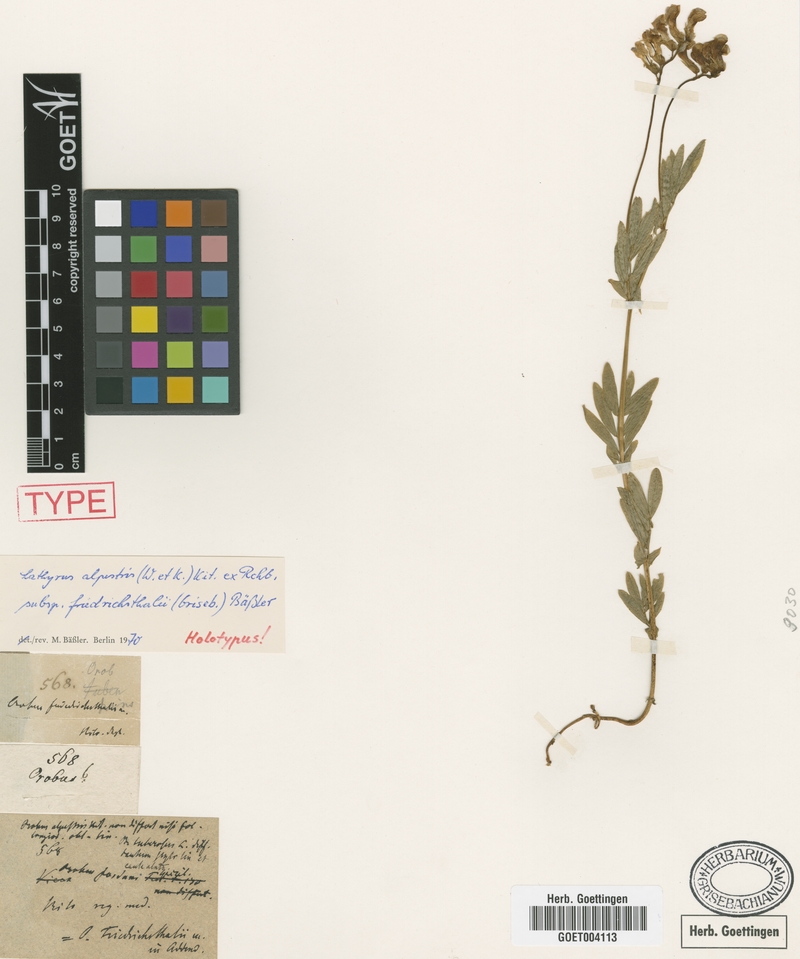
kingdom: Plantae
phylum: Tracheophyta
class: Magnoliopsida
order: Fabales
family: Fabaceae
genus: Lathyrus
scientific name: Lathyrus alpestris
